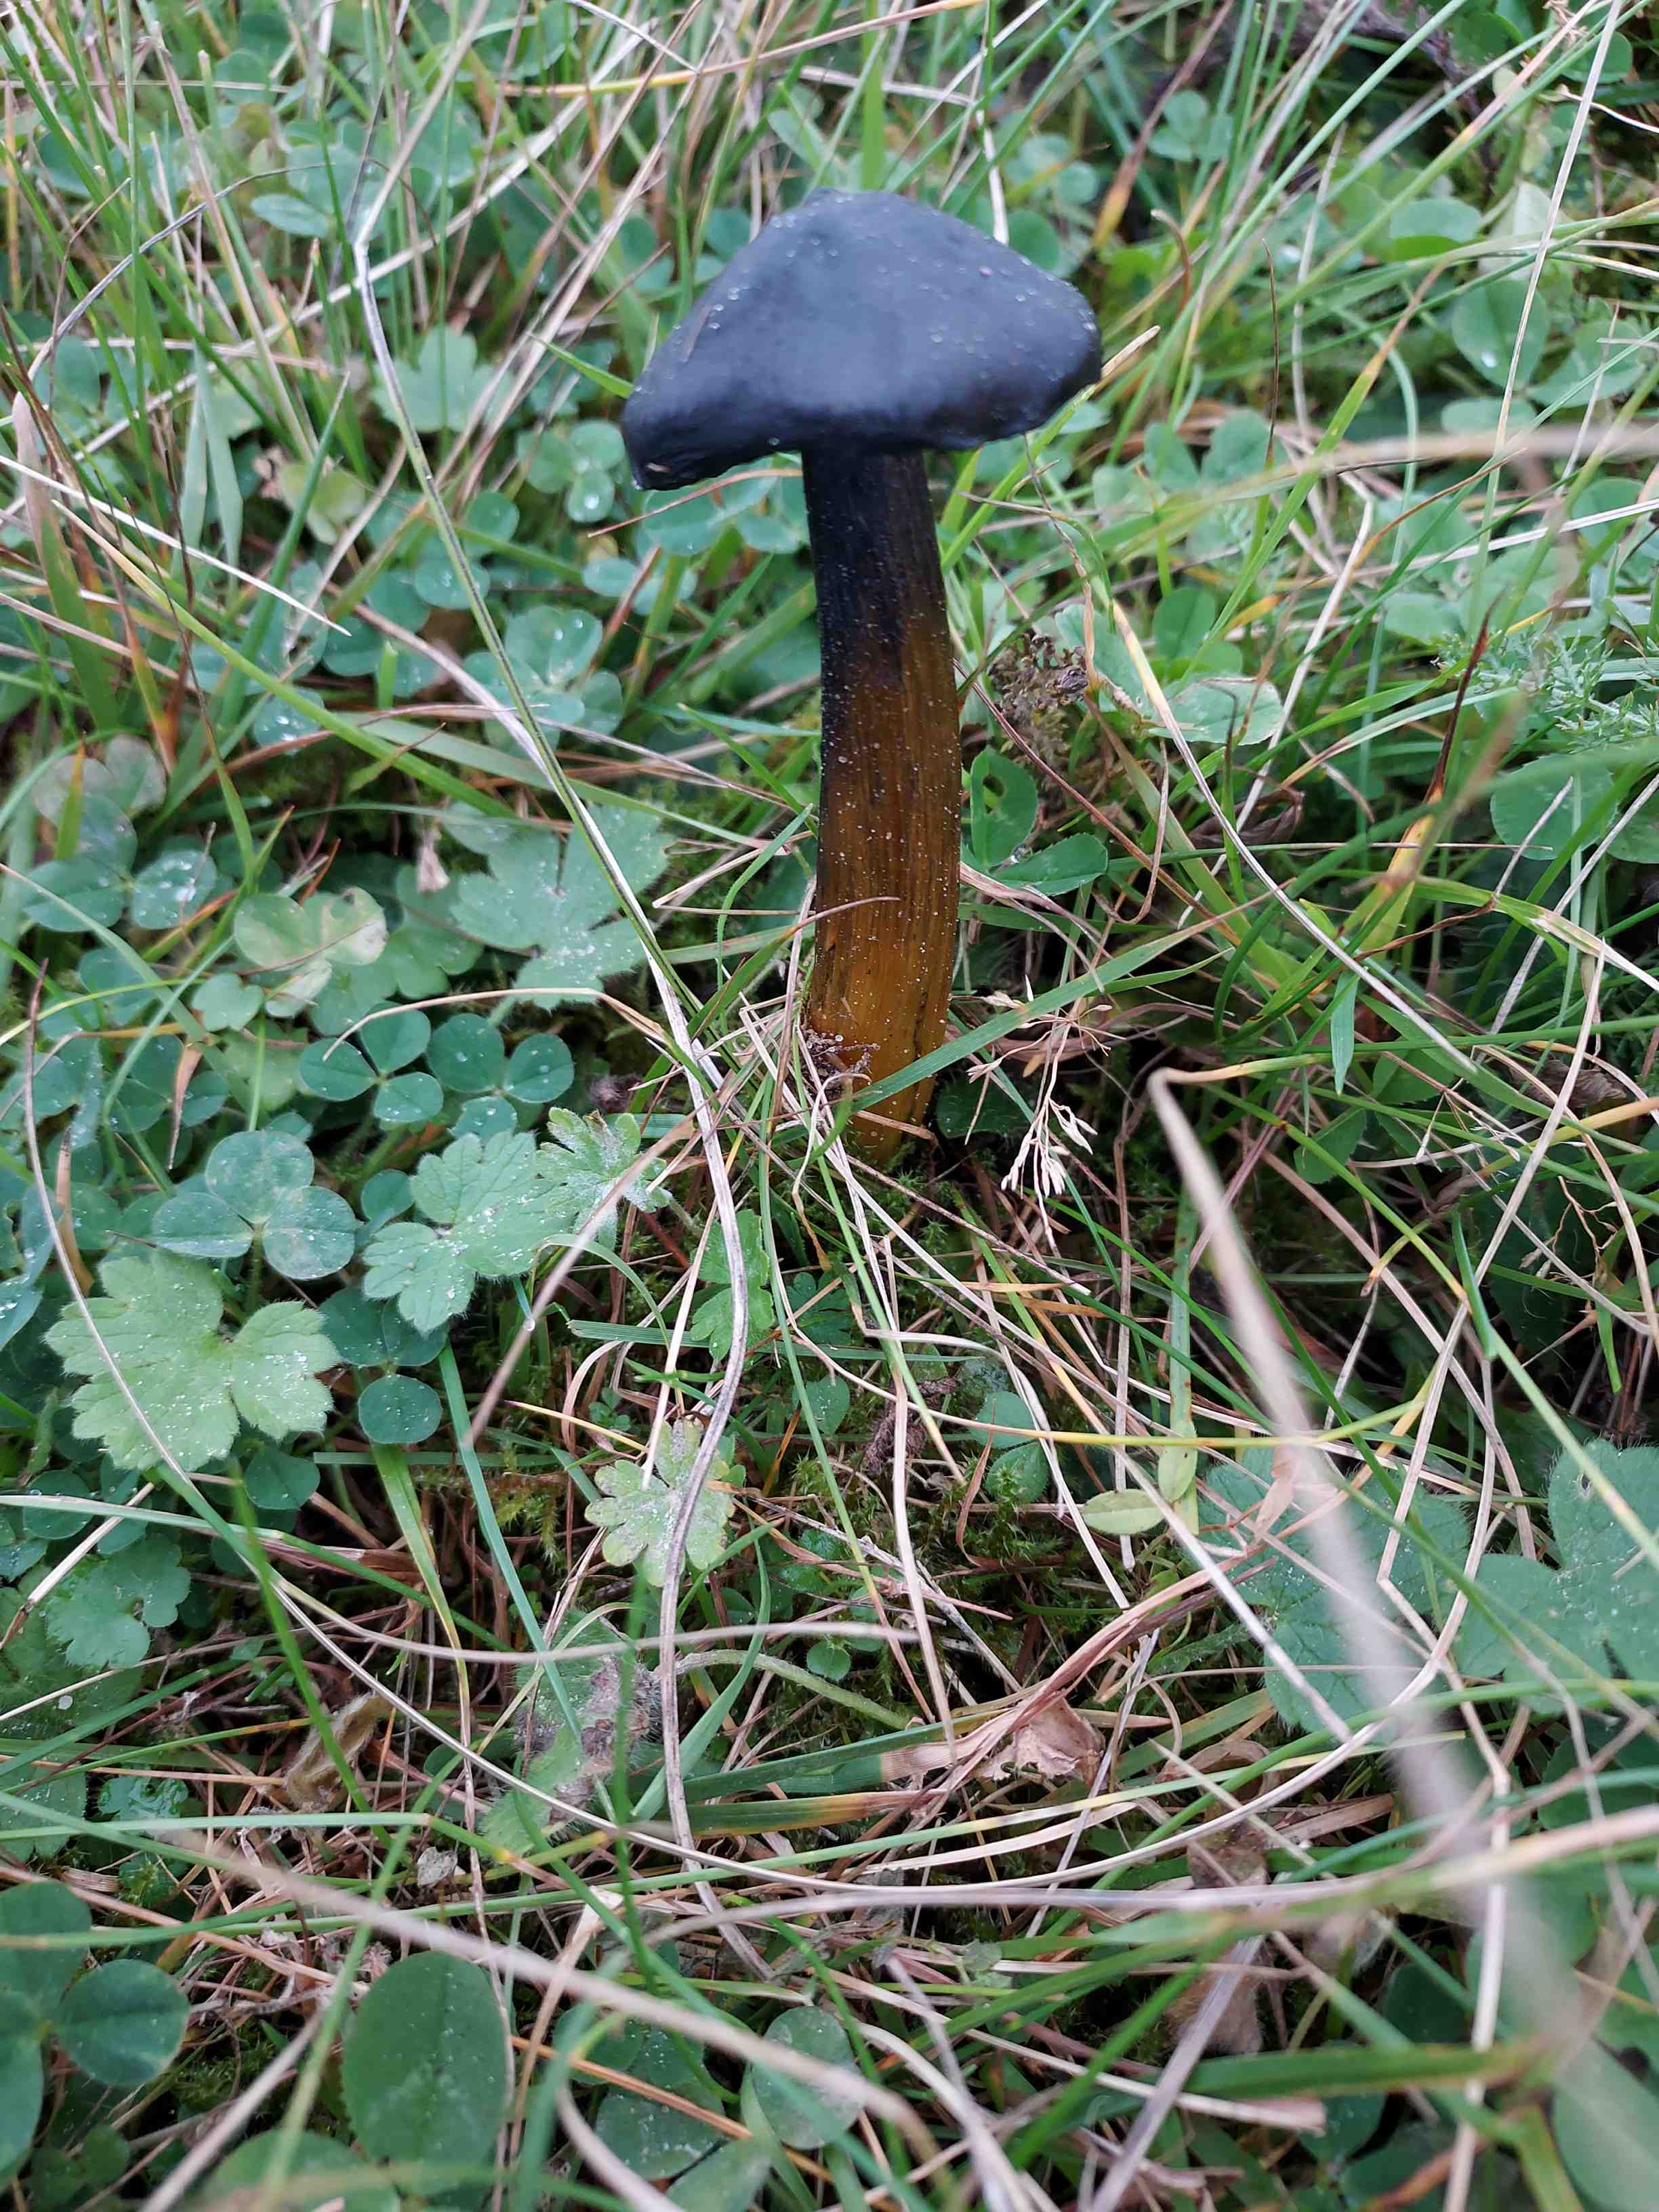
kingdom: Fungi
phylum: Basidiomycota
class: Agaricomycetes
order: Agaricales
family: Hygrophoraceae
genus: Hygrocybe
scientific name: Hygrocybe conica
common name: kegle-vokshat
